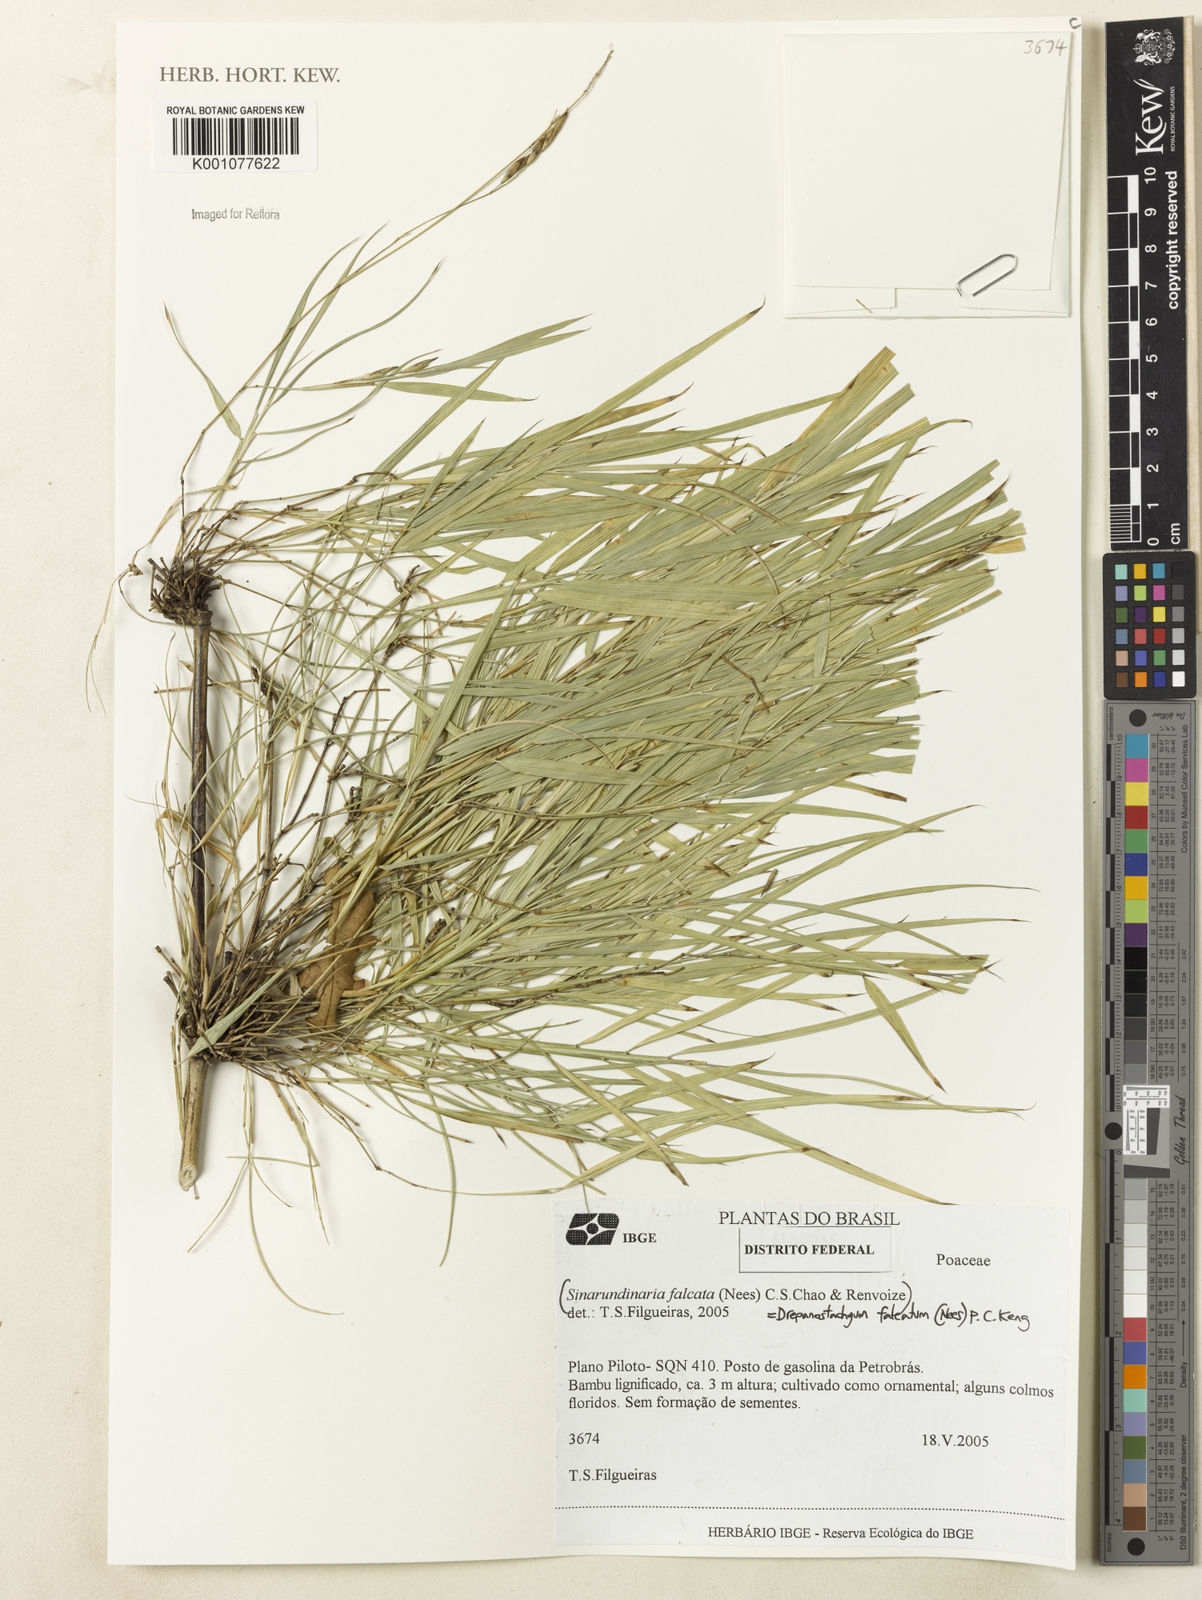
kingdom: Plantae
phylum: Tracheophyta
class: Liliopsida
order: Poales
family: Poaceae
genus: Drepanostachyum
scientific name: Drepanostachyum falcatum
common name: Himalayan bamboo
